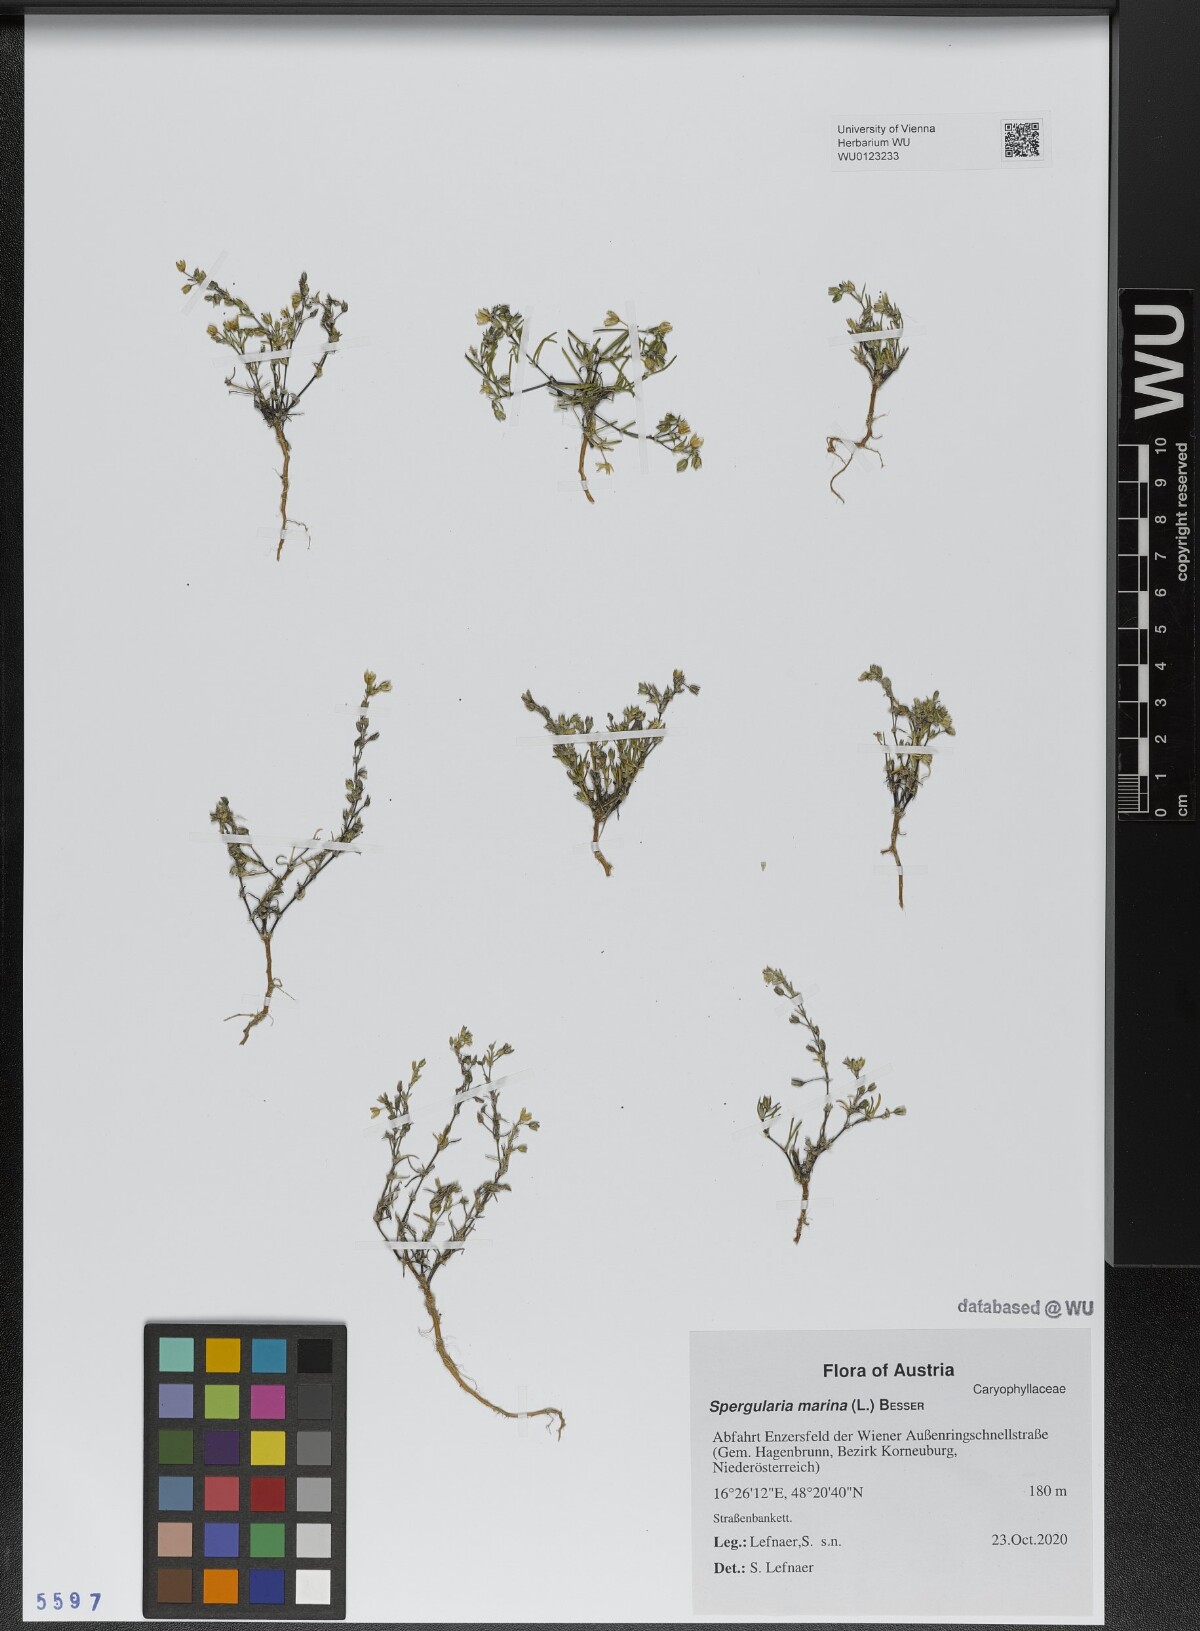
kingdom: Plantae
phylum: Tracheophyta
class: Magnoliopsida
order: Caryophyllales
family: Caryophyllaceae
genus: Spergularia
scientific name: Spergularia marina
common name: Lesser sea-spurrey
